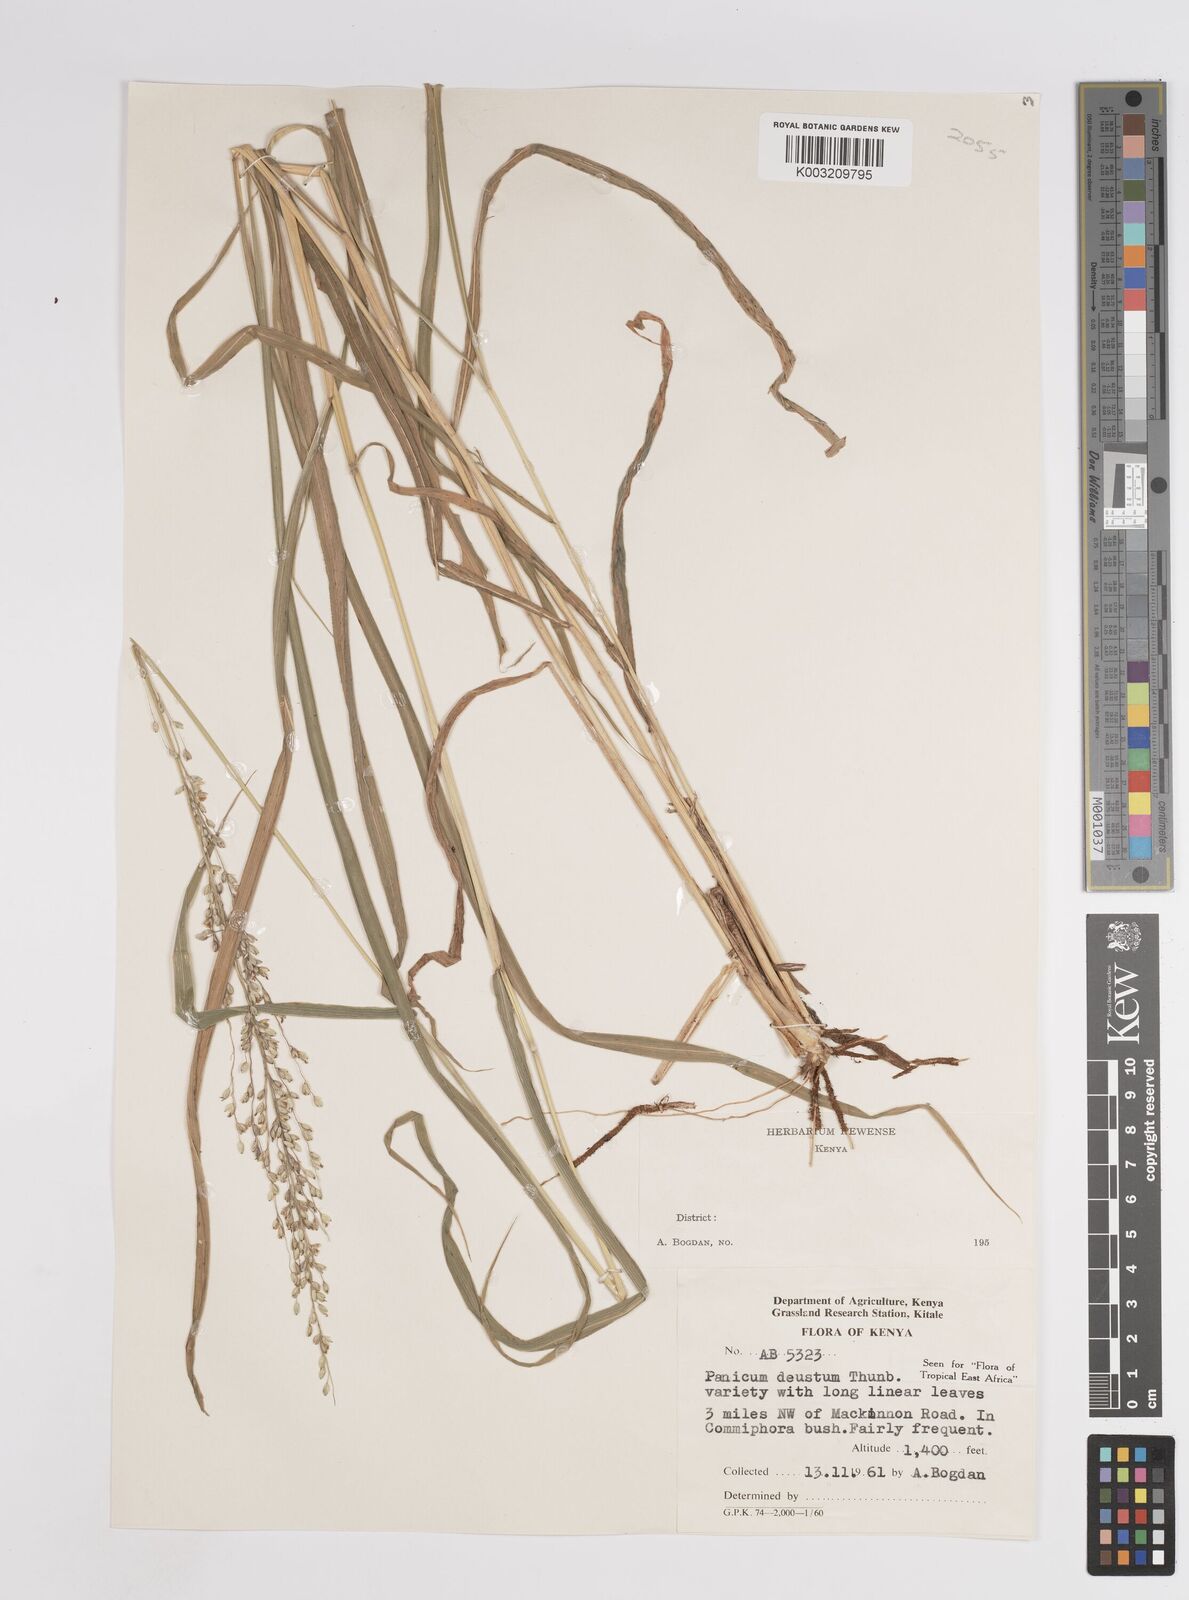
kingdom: Plantae
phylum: Tracheophyta
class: Liliopsida
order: Poales
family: Poaceae
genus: Panicum
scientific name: Panicum deustum
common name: Reed panicum
